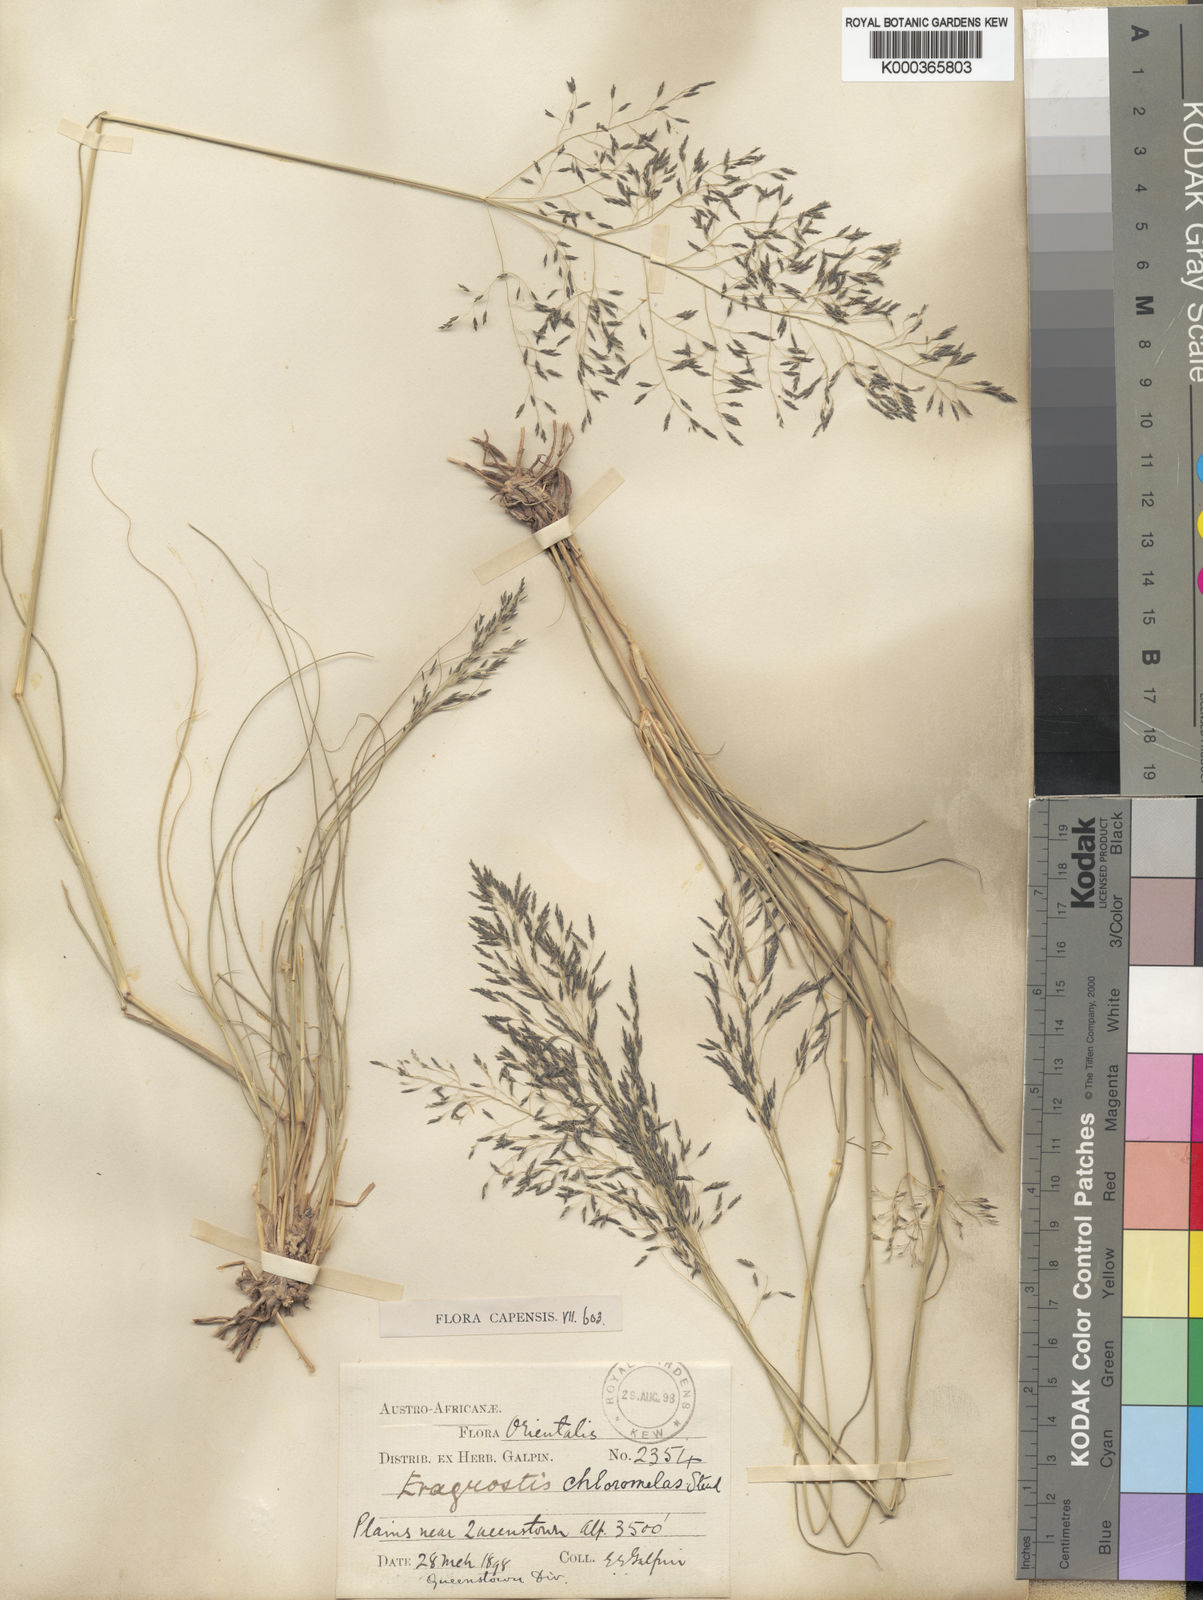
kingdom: Plantae
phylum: Tracheophyta
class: Liliopsida
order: Poales
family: Poaceae
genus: Eragrostis
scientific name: Eragrostis curvula
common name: African love-grass
